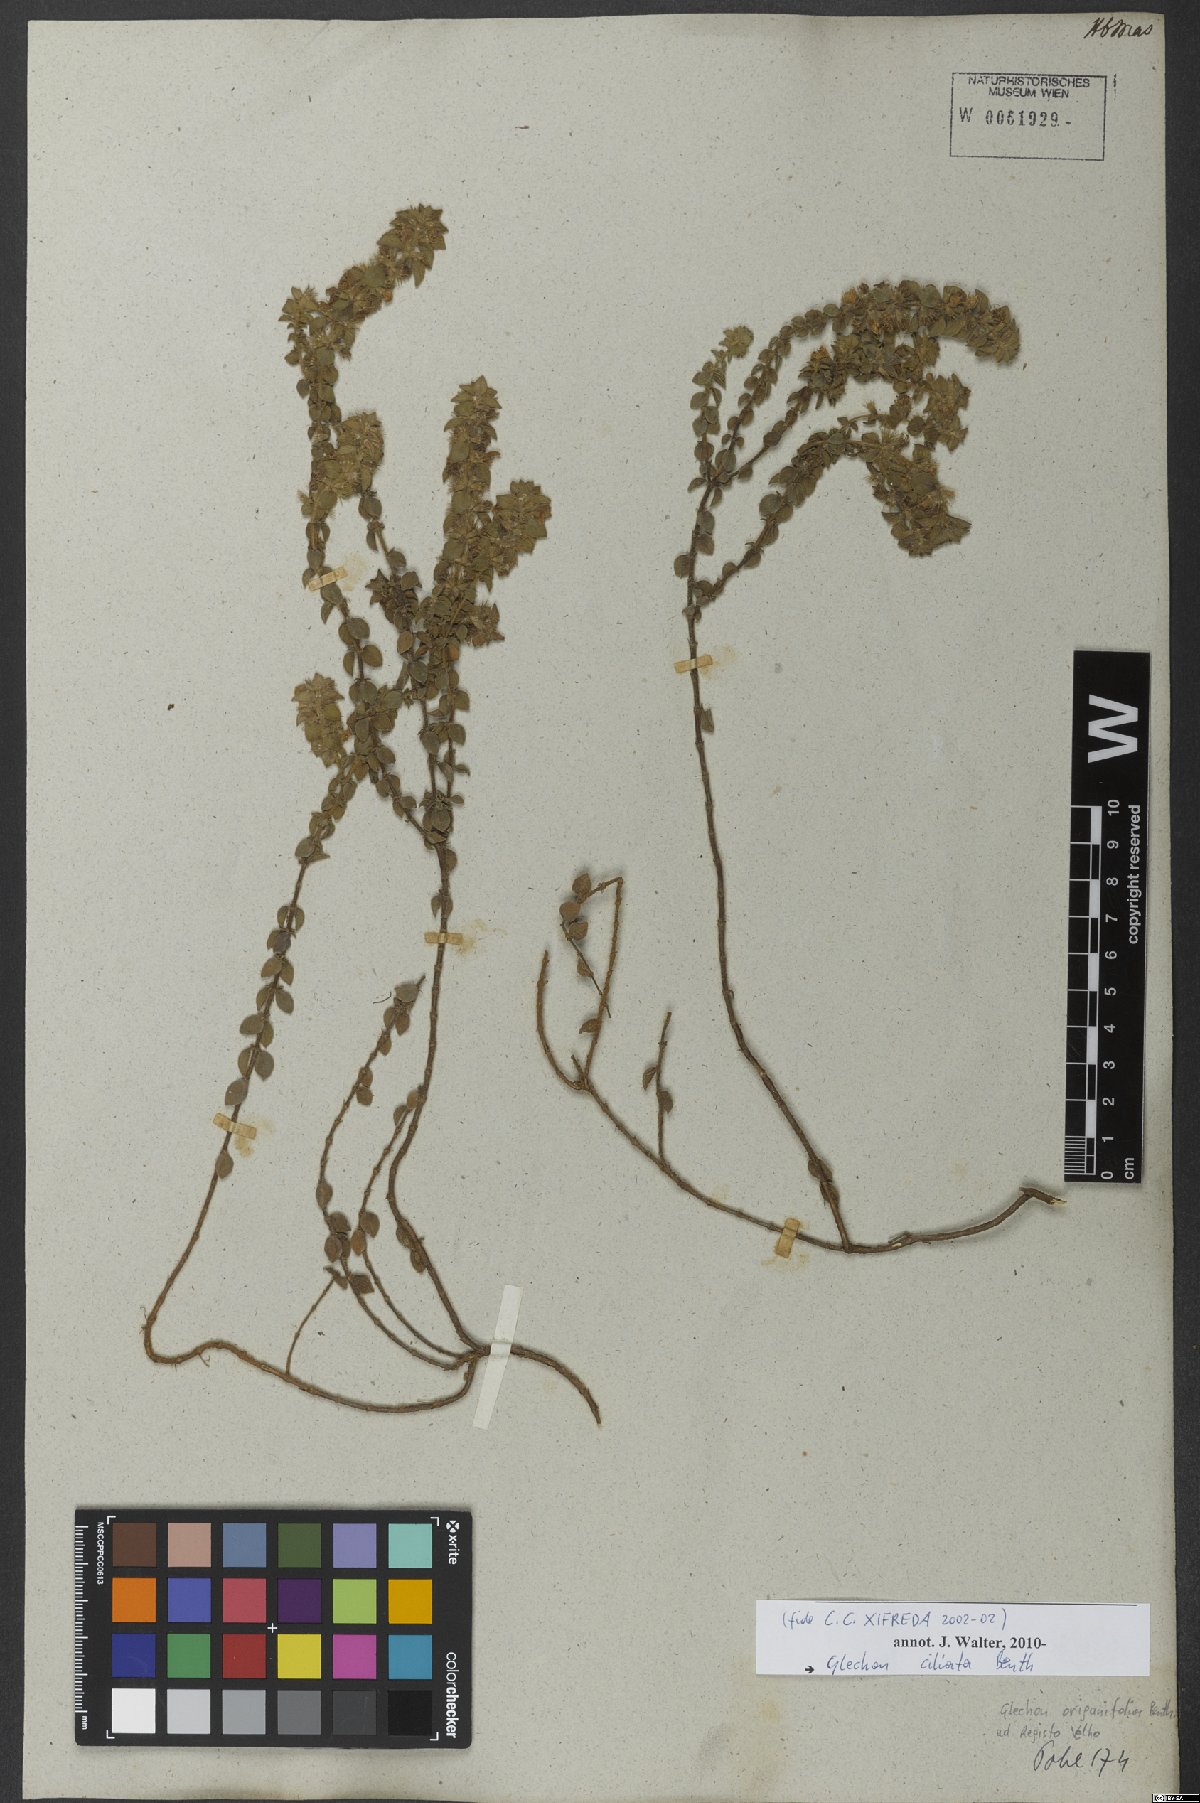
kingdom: Plantae
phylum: Tracheophyta
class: Magnoliopsida
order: Lamiales
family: Lamiaceae
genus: Glechon
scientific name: Glechon ciliata
